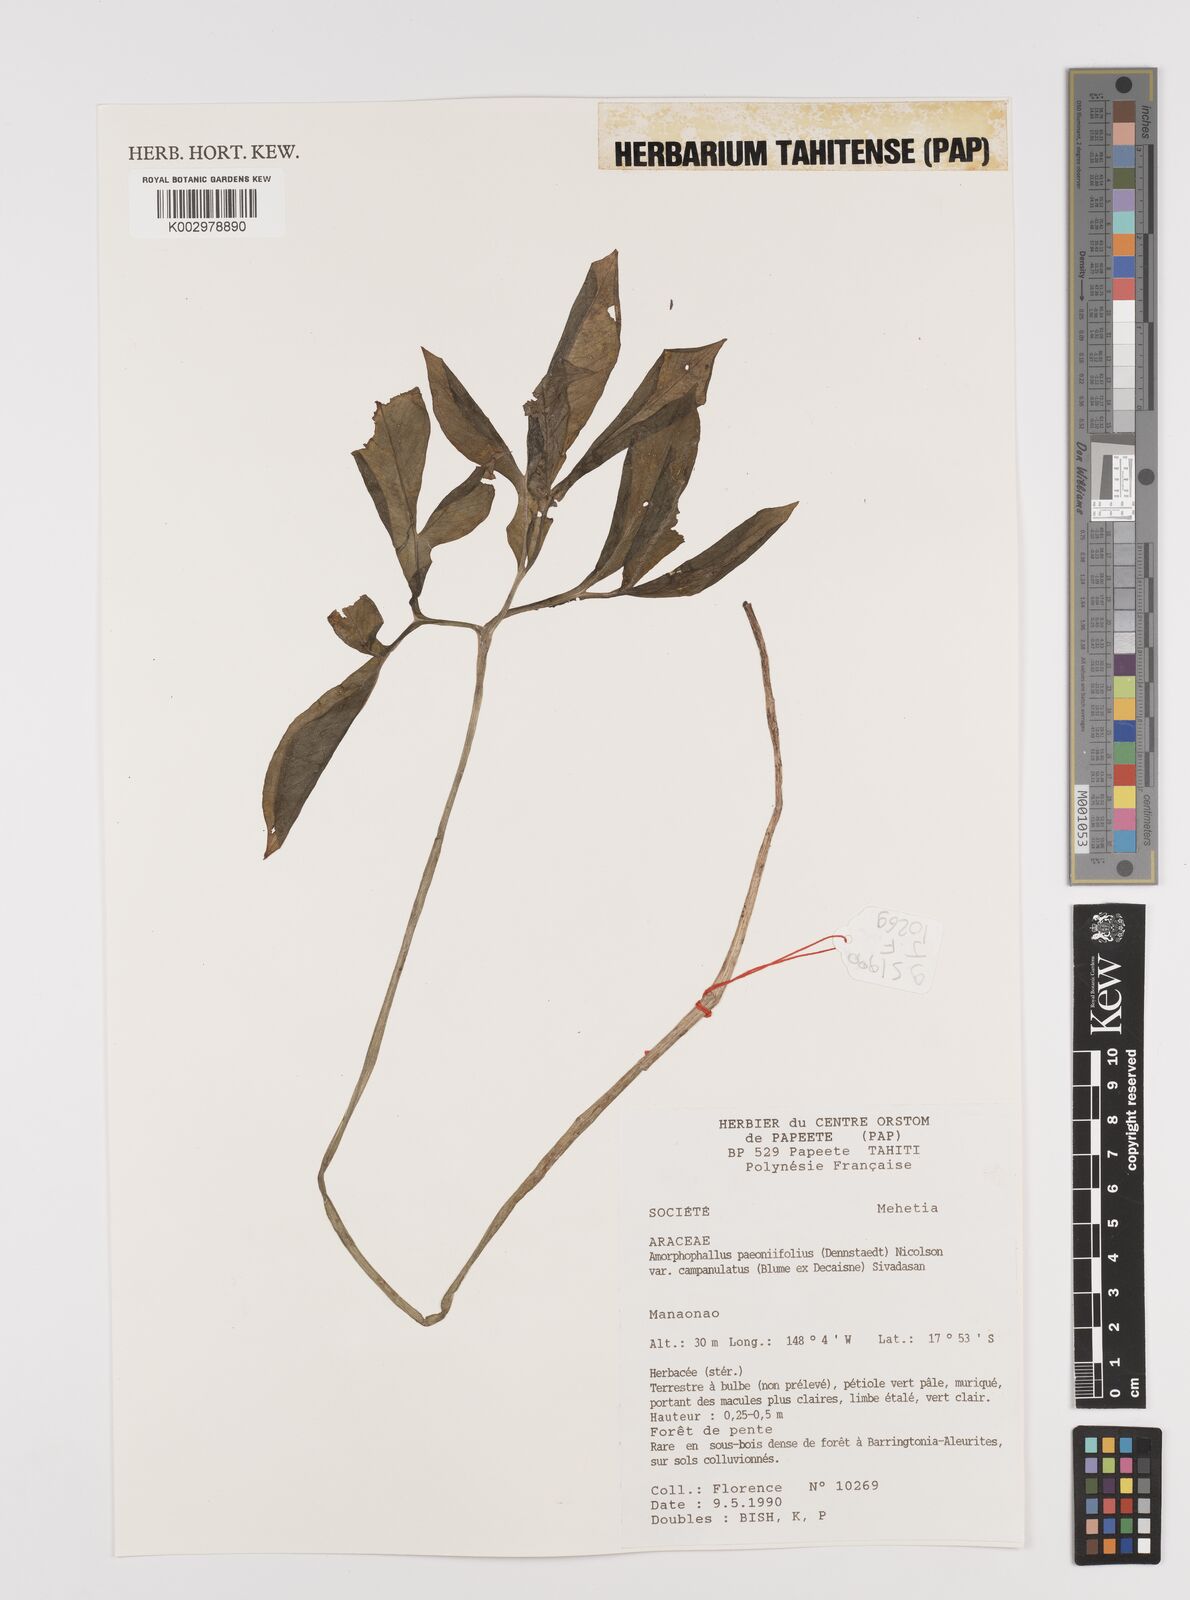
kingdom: Plantae
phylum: Tracheophyta
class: Liliopsida
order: Alismatales
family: Araceae
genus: Amorphophallus
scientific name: Amorphophallus paeoniifolius
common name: Telinga-potato
